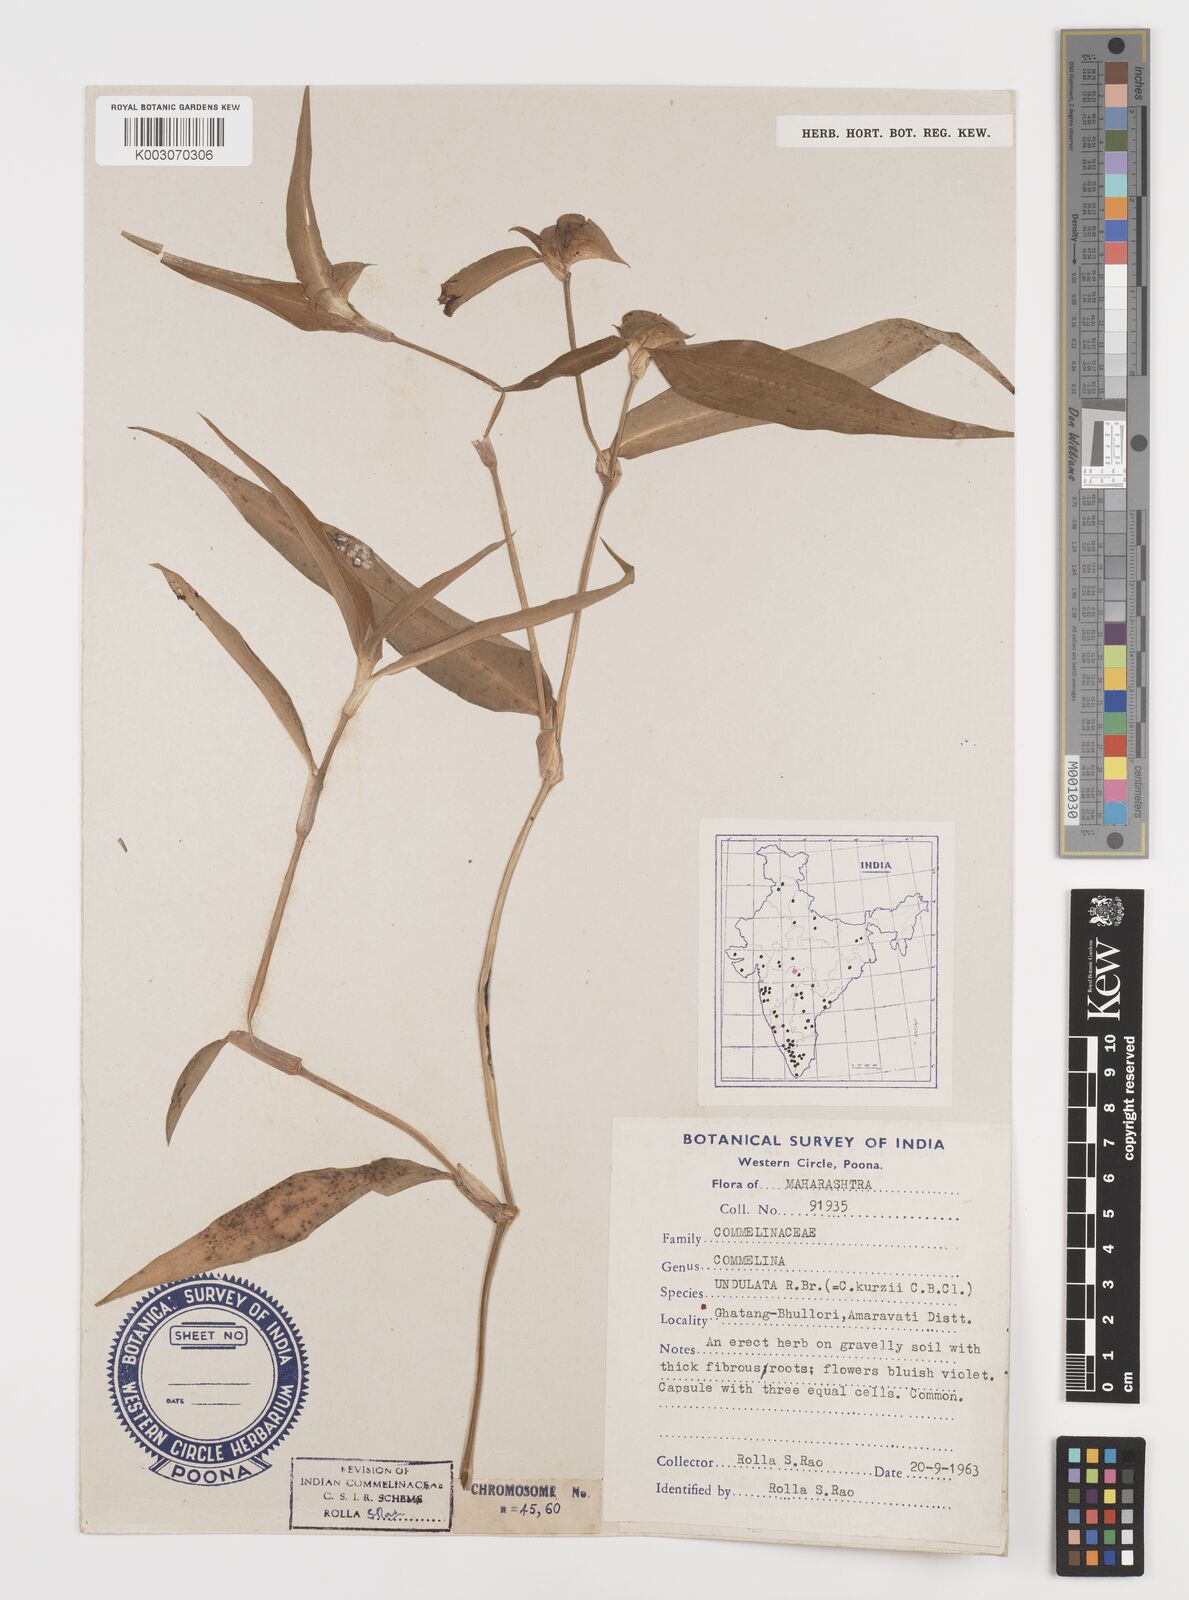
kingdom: Plantae
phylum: Tracheophyta
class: Liliopsida
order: Commelinales
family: Commelinaceae
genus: Commelina
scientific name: Commelina chamissonis
